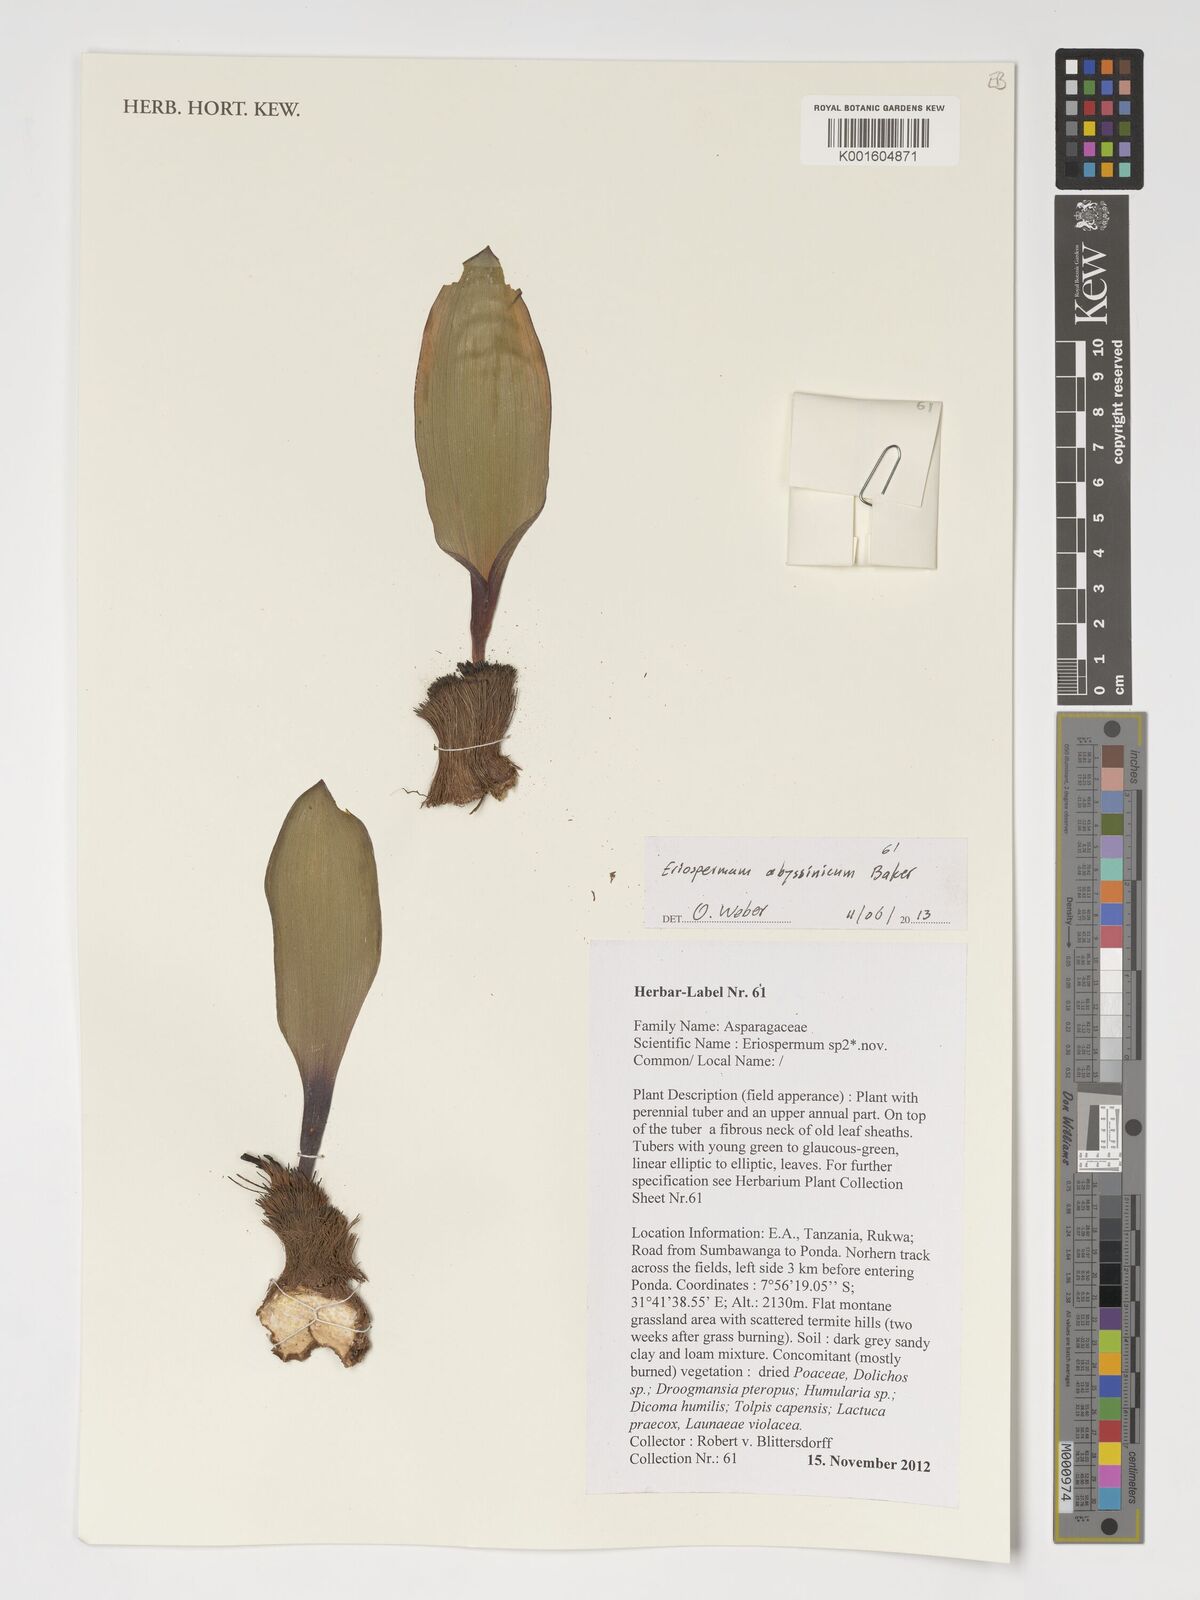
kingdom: Plantae
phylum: Tracheophyta
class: Liliopsida
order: Asparagales
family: Asparagaceae
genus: Eriospermum
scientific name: Eriospermum abyssinicum
